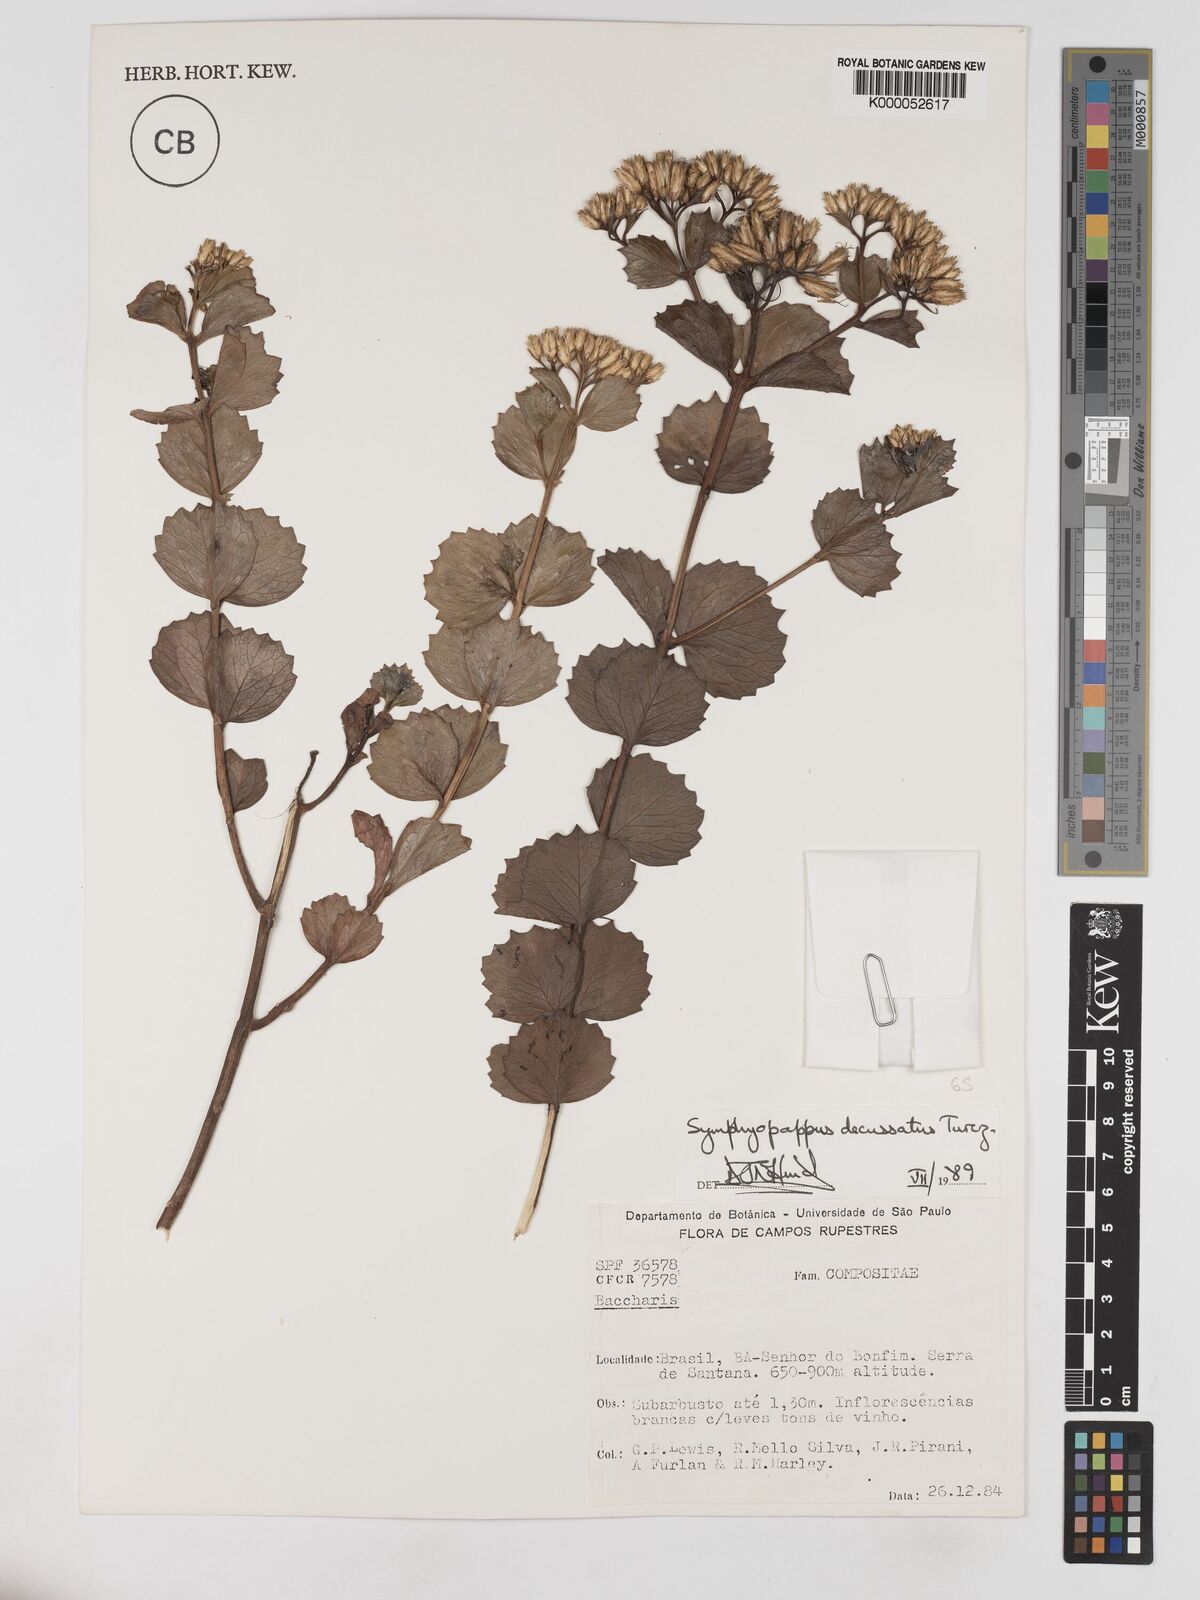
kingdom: Plantae
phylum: Tracheophyta
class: Magnoliopsida
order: Asterales
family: Asteraceae
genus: Symphyopappus
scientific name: Symphyopappus decussatus
